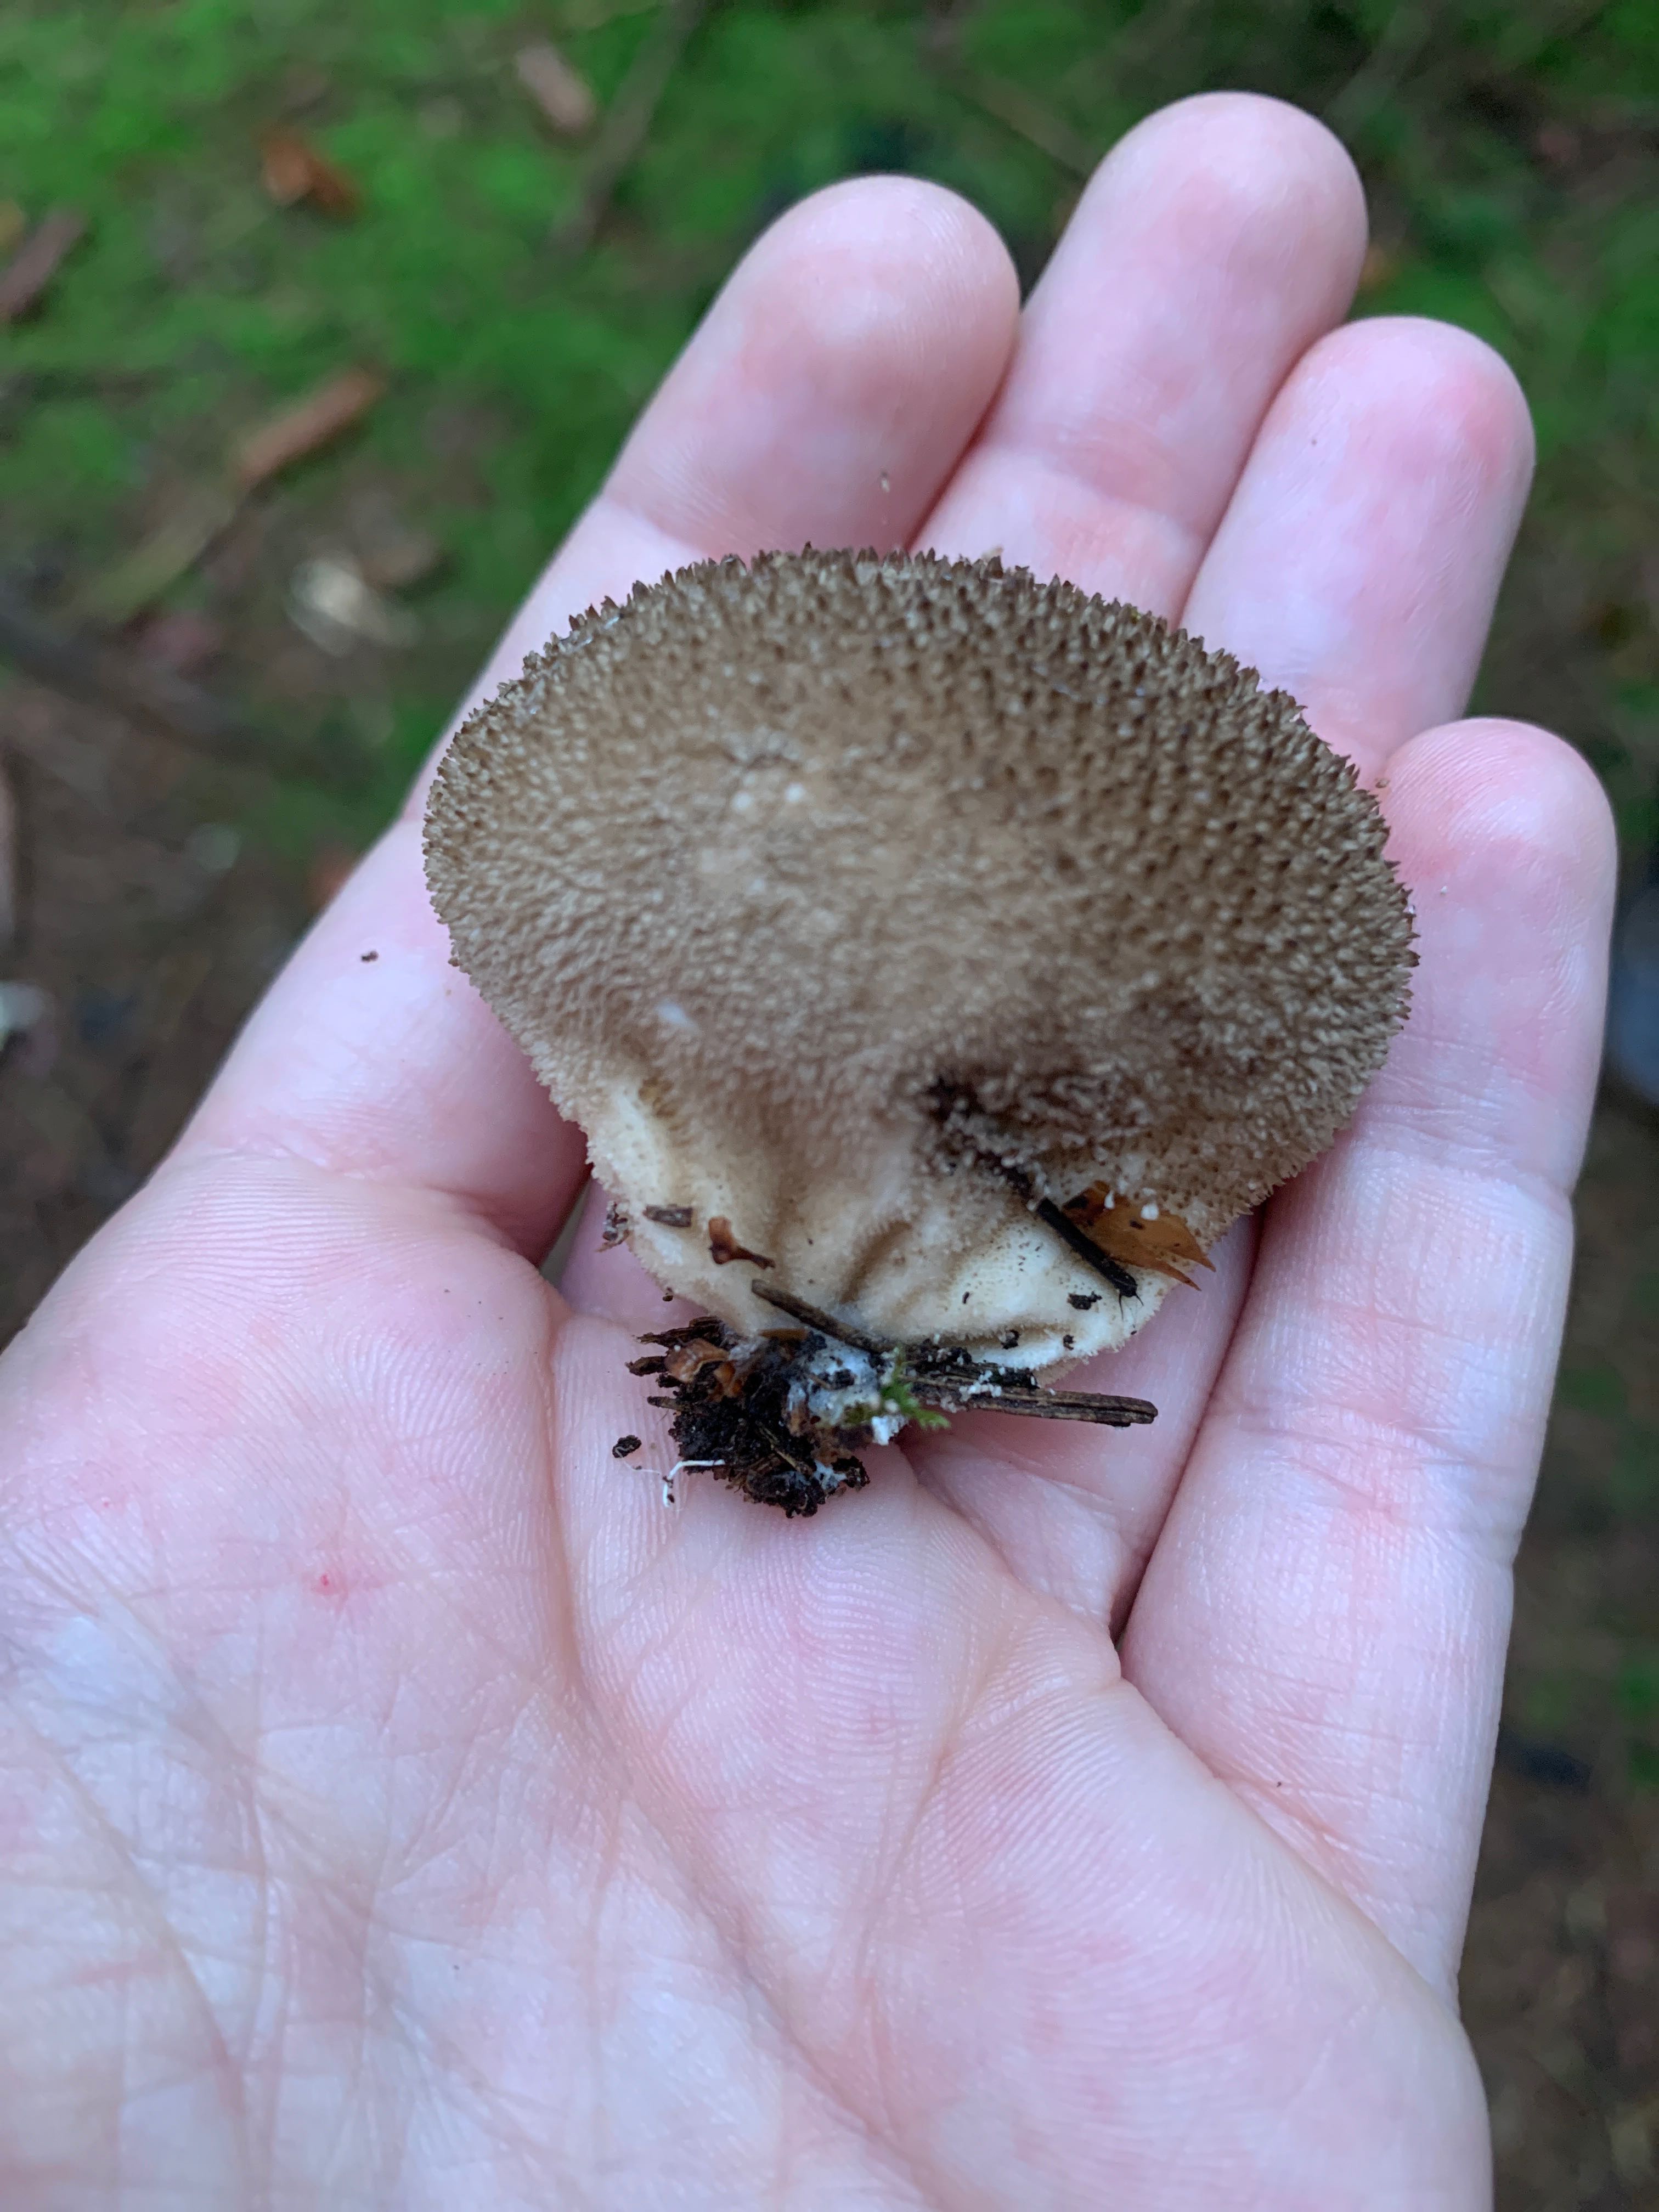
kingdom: Fungi
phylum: Basidiomycota
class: Agaricomycetes
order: Agaricales
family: Lycoperdaceae
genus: Lycoperdon
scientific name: Lycoperdon nigrescens
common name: sortagtig støvbold
